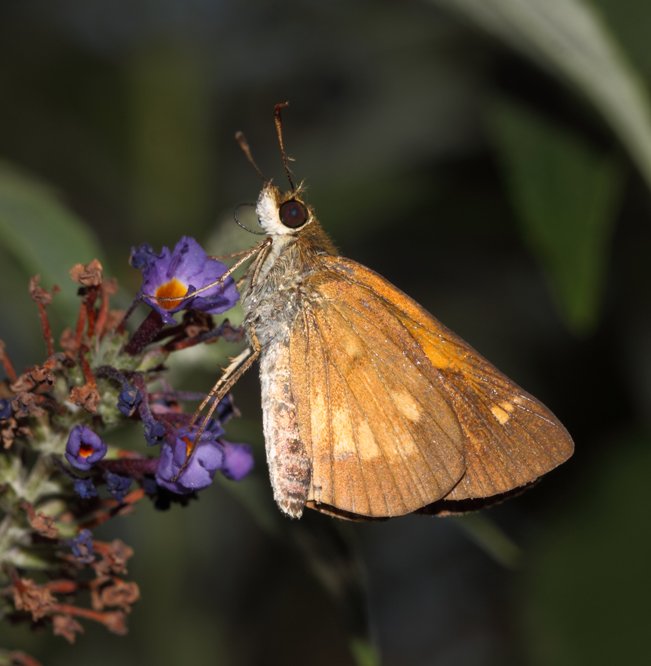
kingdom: Animalia
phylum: Arthropoda
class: Insecta
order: Lepidoptera
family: Hesperiidae
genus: Poanes
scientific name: Poanes viator
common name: Broad-winged Skipper
